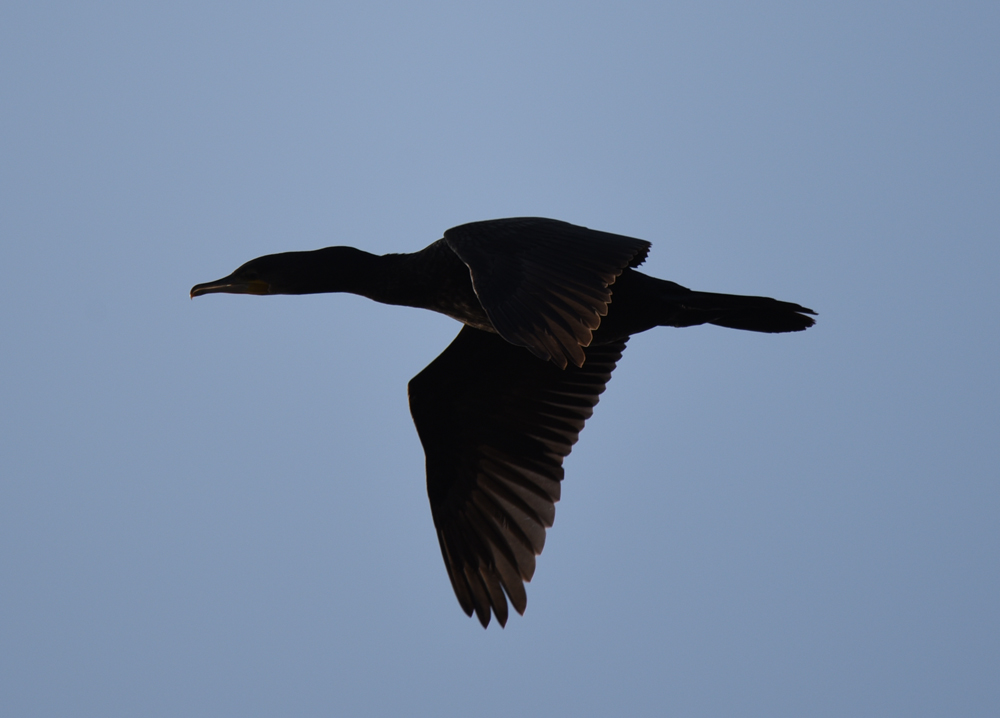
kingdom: Animalia
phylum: Chordata
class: Aves
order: Suliformes
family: Phalacrocoracidae
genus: Phalacrocorax
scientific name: Phalacrocorax carbo
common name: Great cormorant
